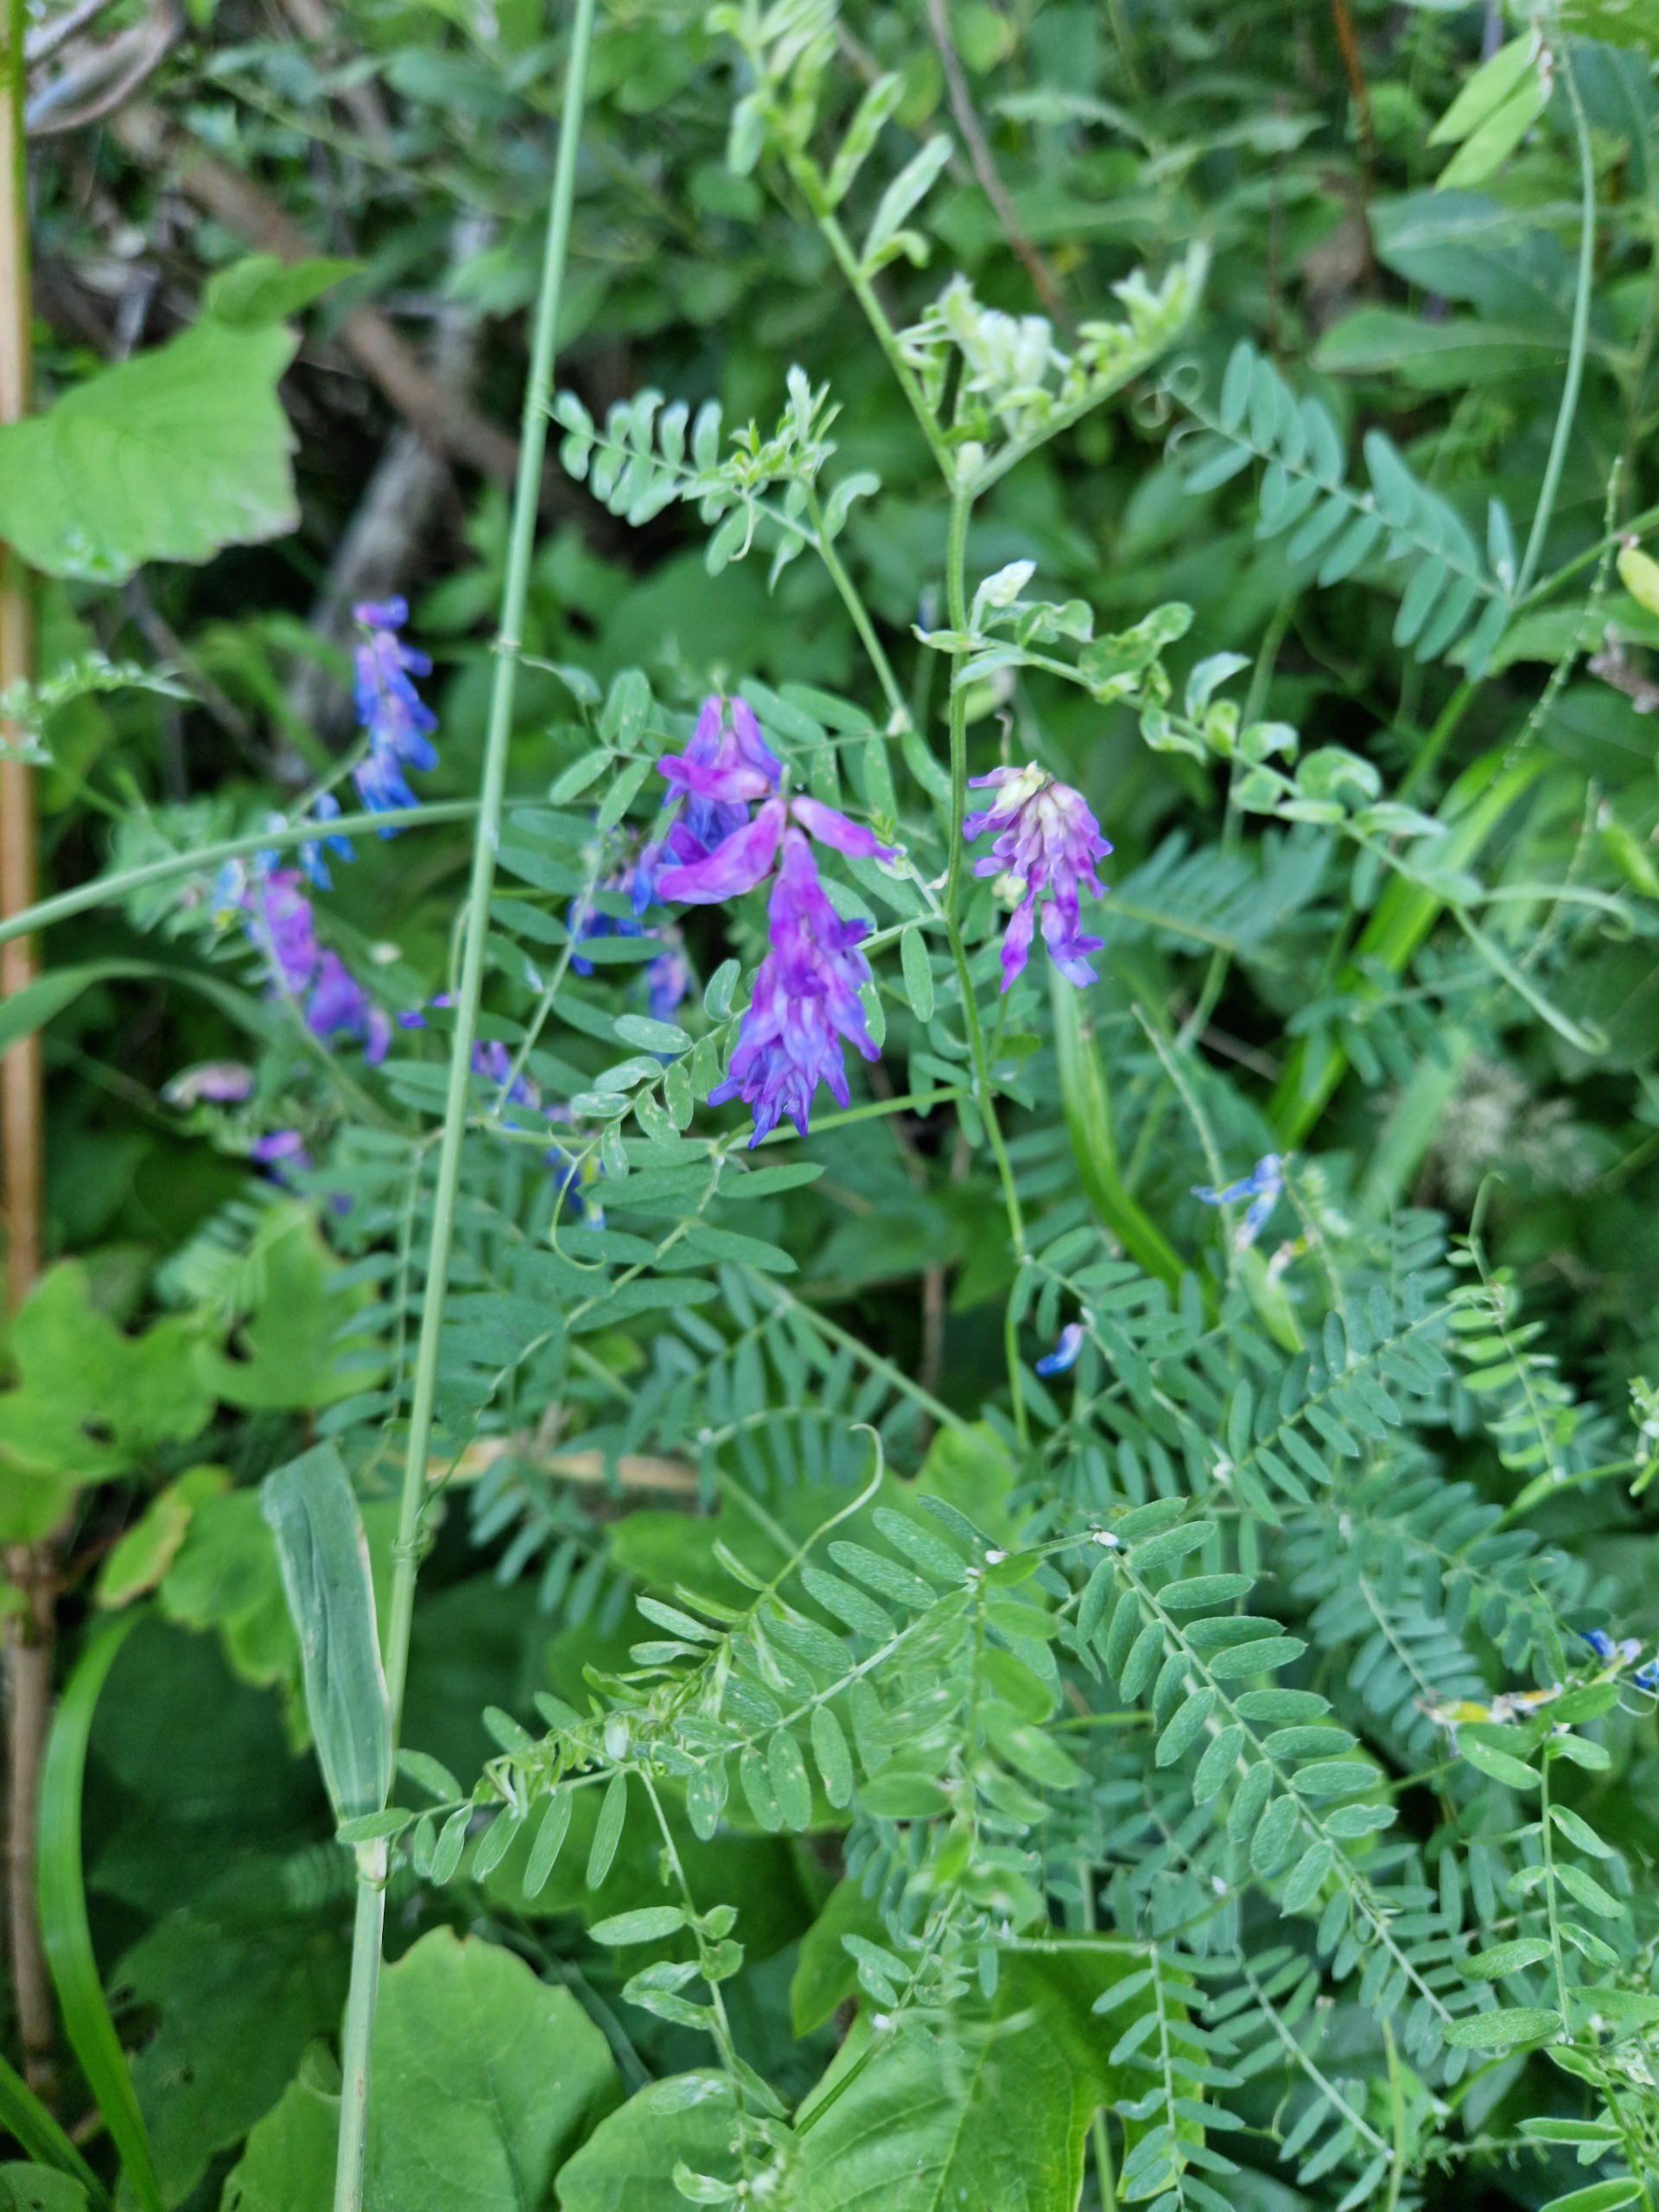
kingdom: Plantae
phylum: Tracheophyta
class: Magnoliopsida
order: Fabales
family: Fabaceae
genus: Vicia
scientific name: Vicia cracca
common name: Muse-vikke
